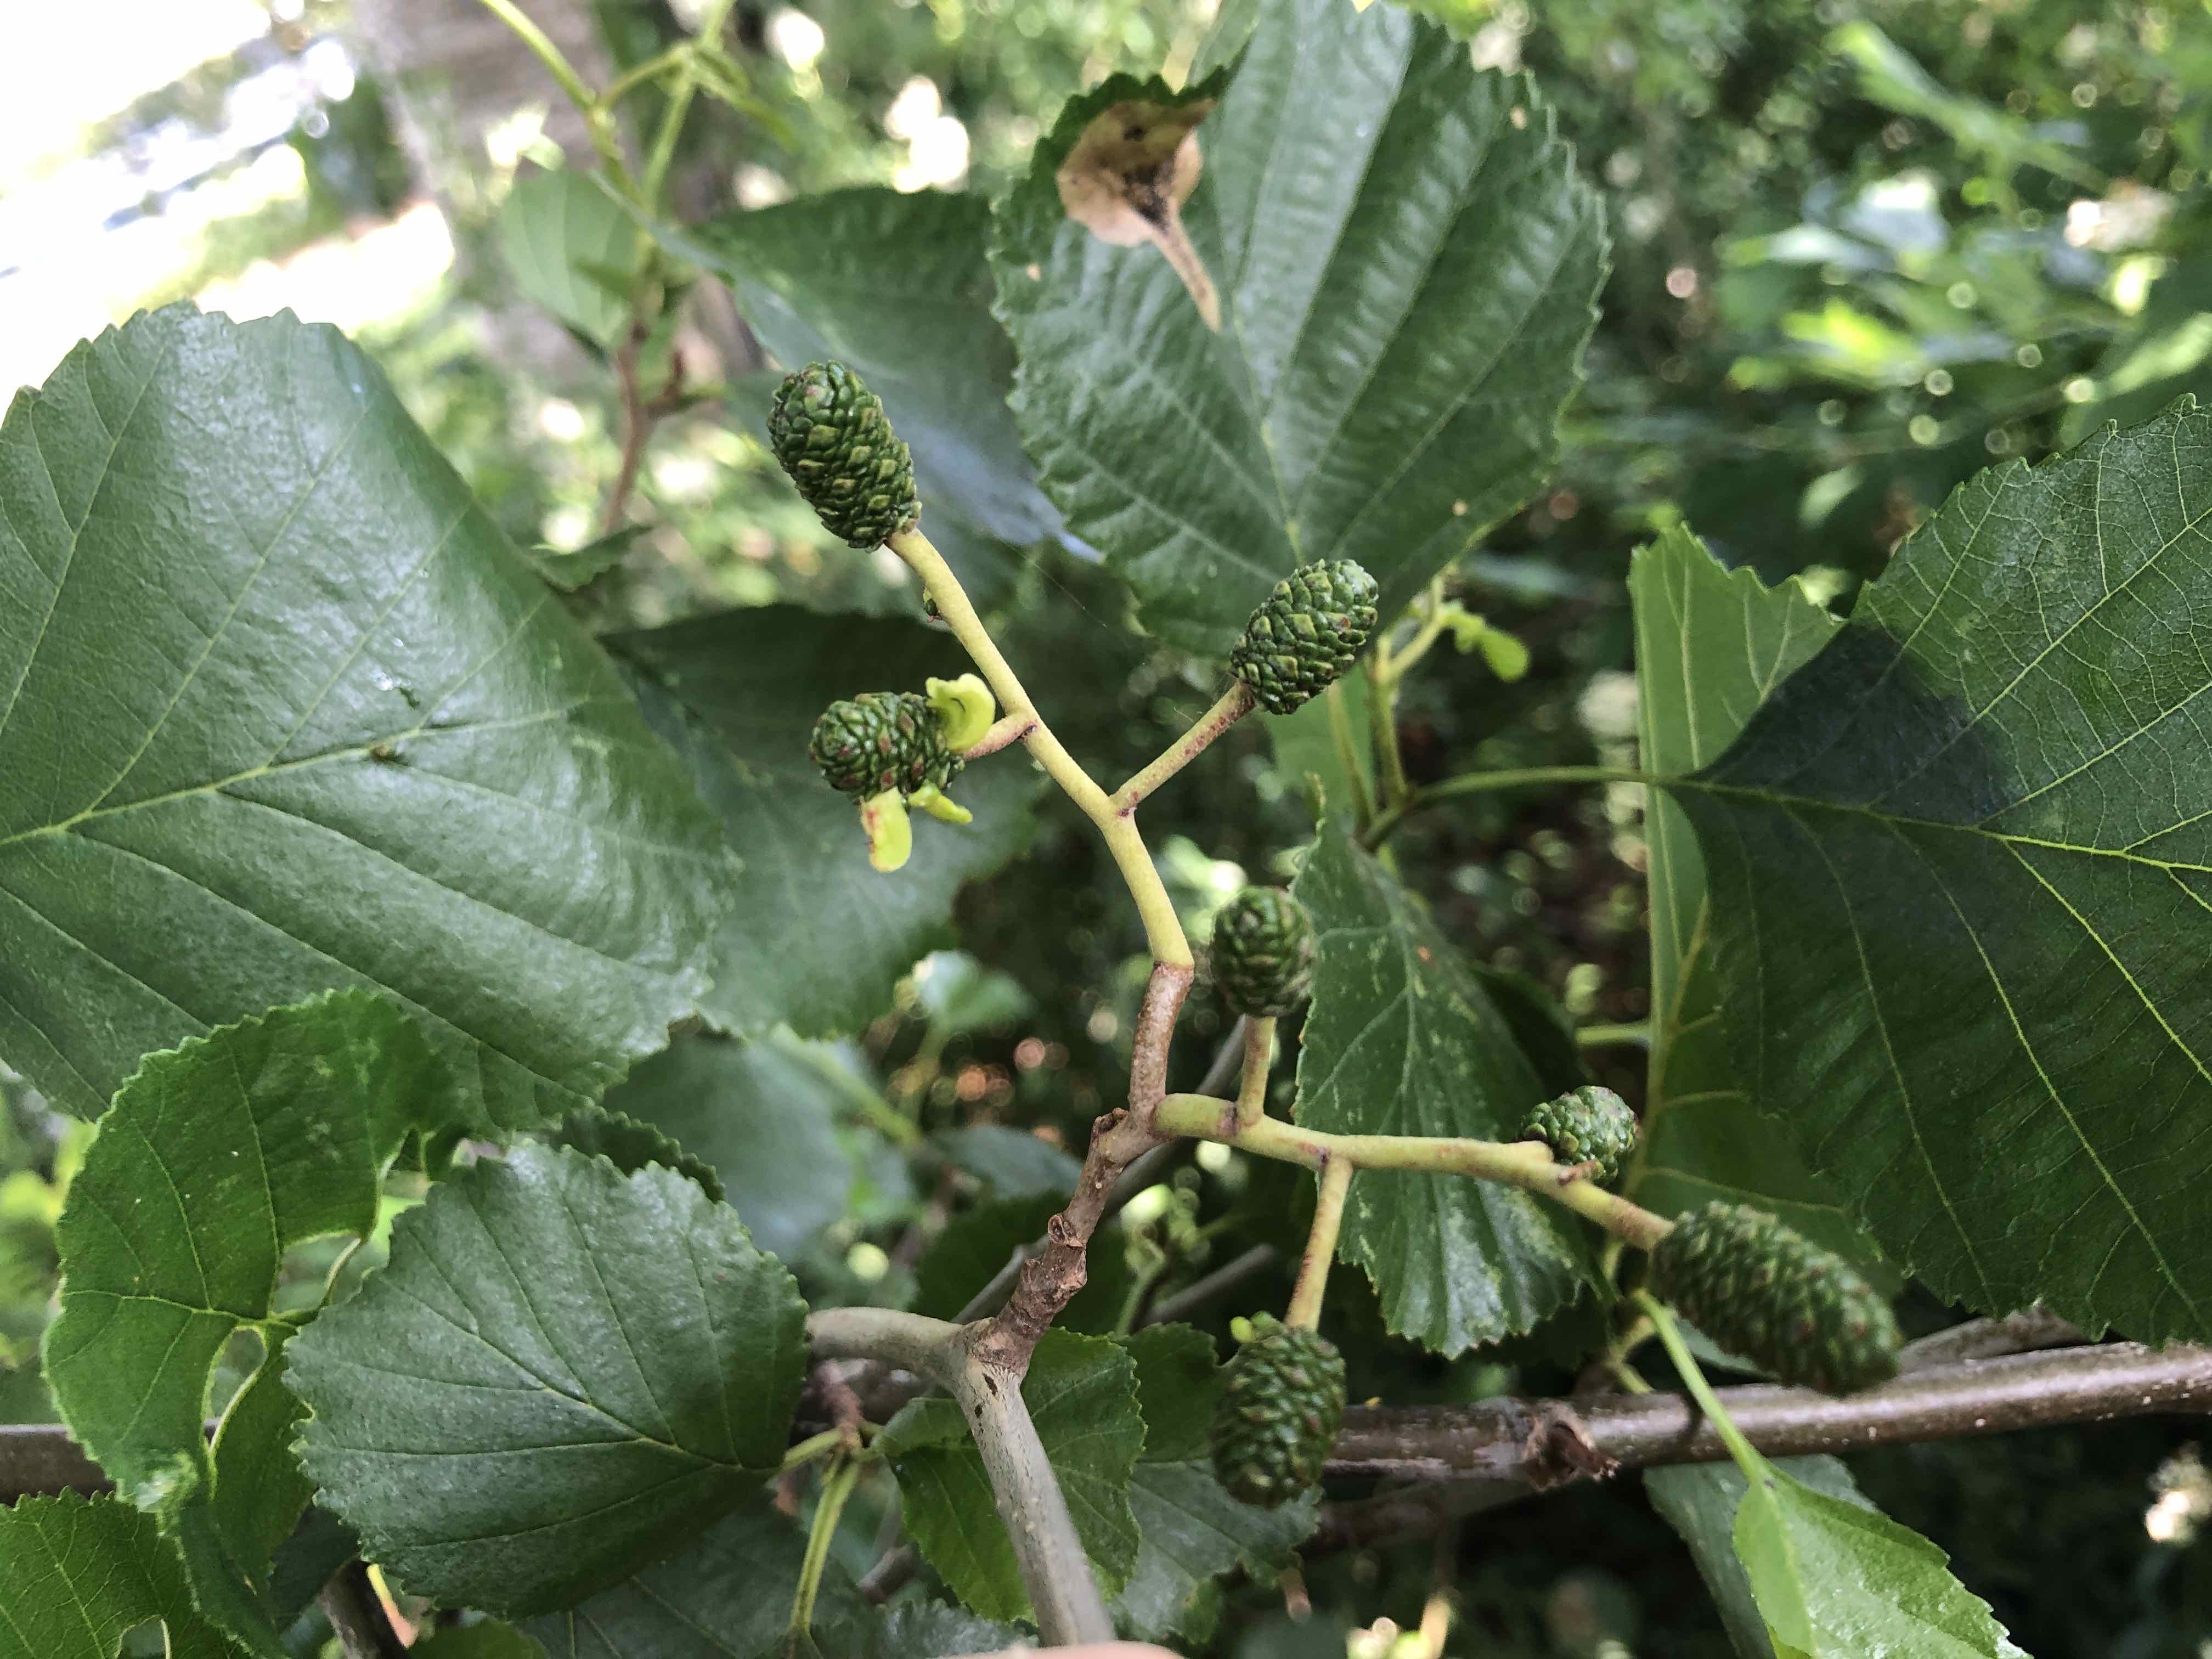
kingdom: Fungi
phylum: Ascomycota
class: Taphrinomycetes
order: Taphrinales
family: Taphrinaceae
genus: Taphrina
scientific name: Taphrina alni
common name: Alder tongue
